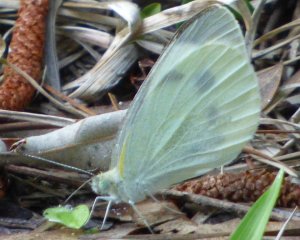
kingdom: Animalia
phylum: Arthropoda
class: Insecta
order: Lepidoptera
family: Pieridae
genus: Pieris
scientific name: Pieris rapae
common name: Cabbage White
